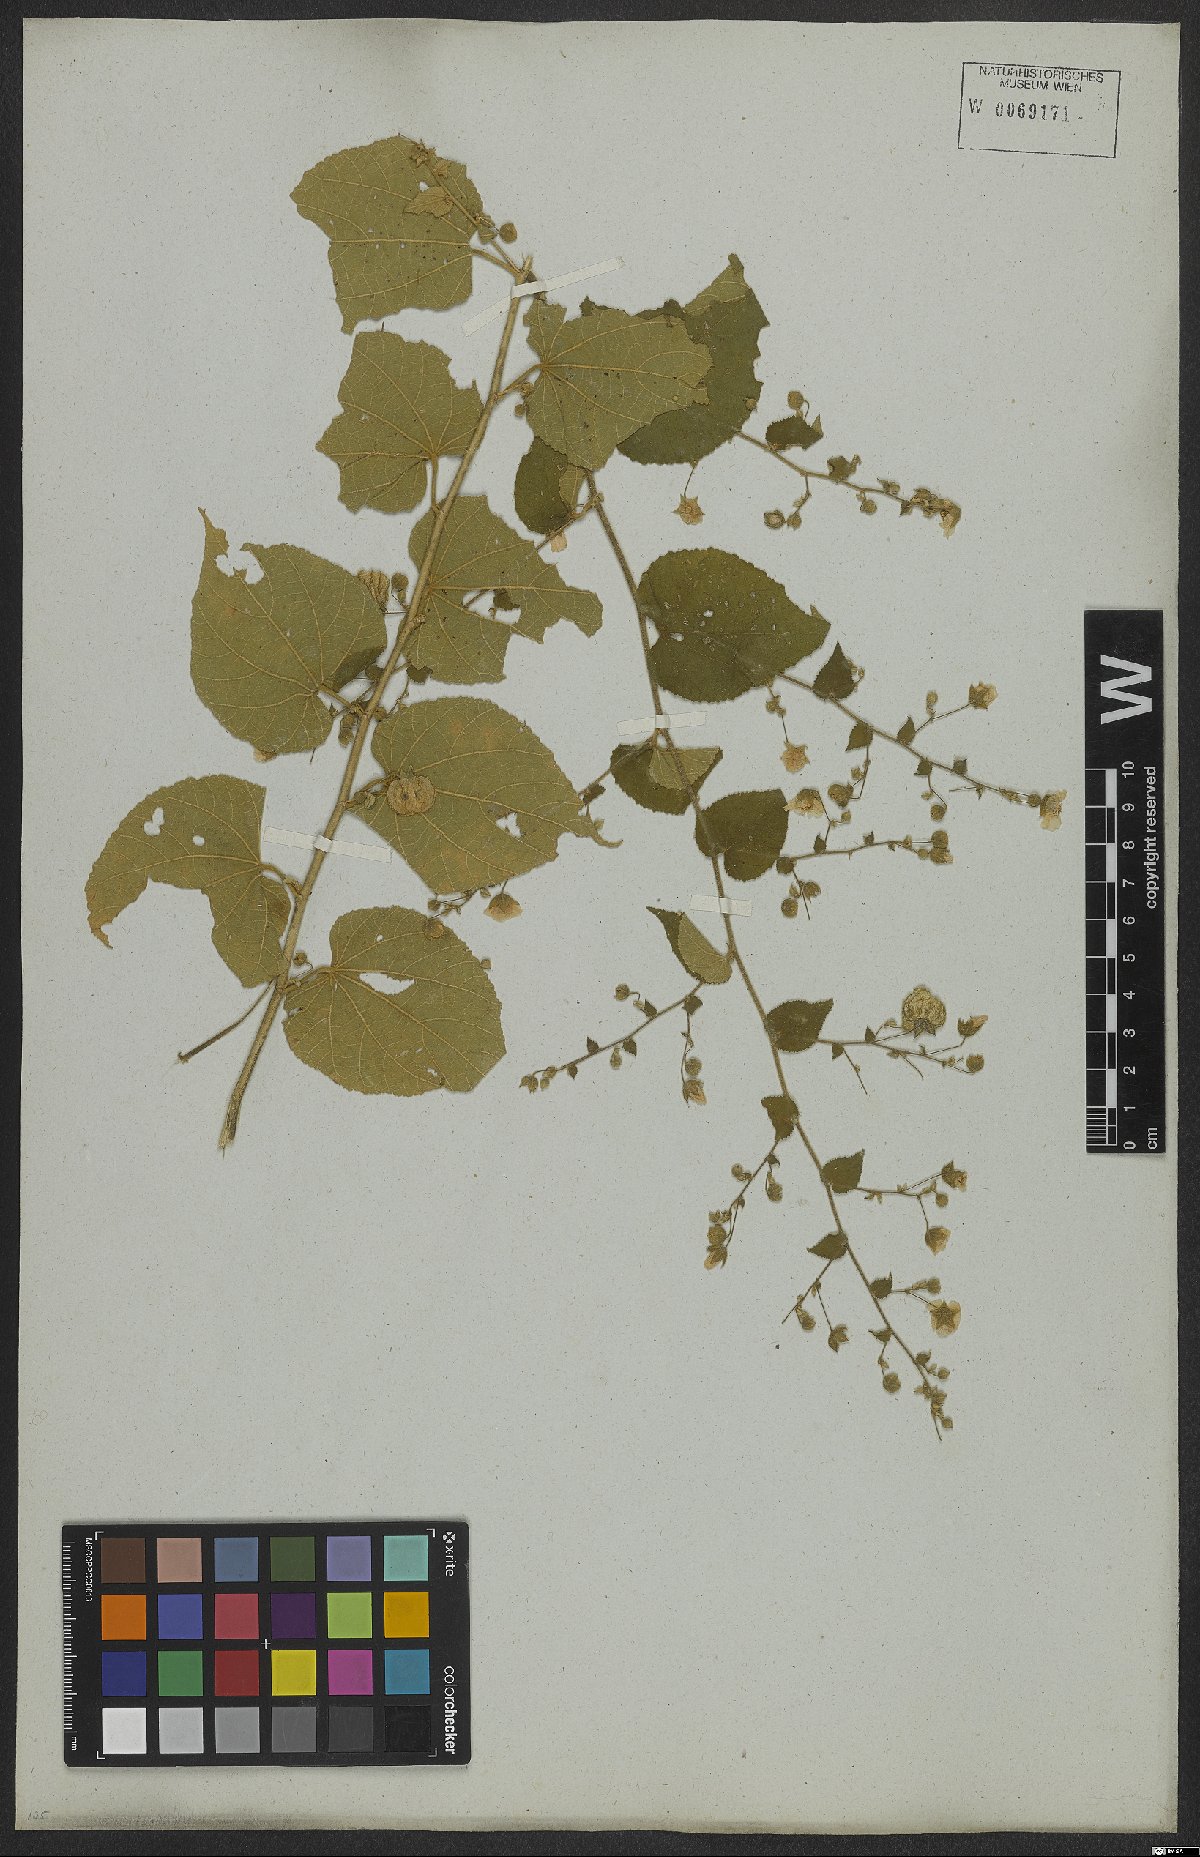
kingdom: Plantae
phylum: Tracheophyta
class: Magnoliopsida
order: Malvales
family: Malvaceae
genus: Herissantia
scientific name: Herissantia crispa
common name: Bladdermallow
